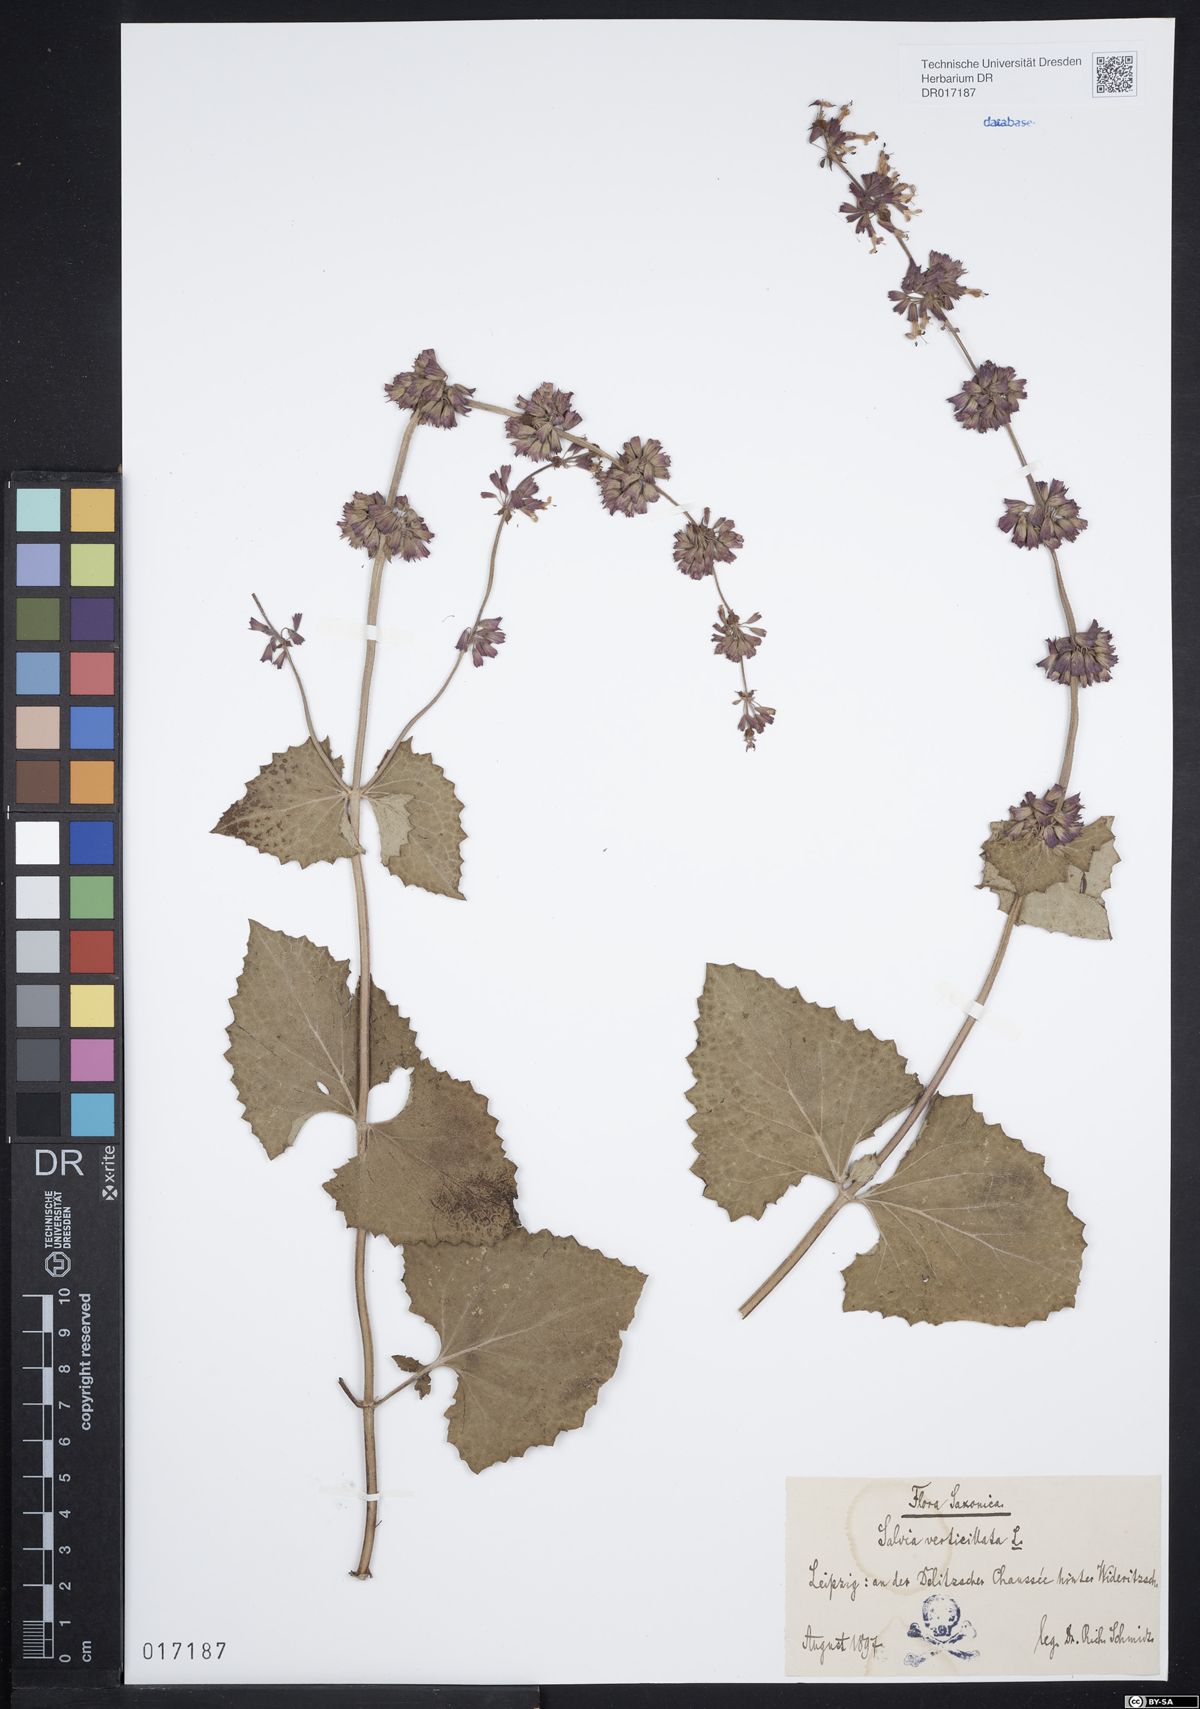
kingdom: Plantae
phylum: Tracheophyta
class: Magnoliopsida
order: Lamiales
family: Lamiaceae
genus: Salvia
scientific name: Salvia verticillata
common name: Whorled clary
